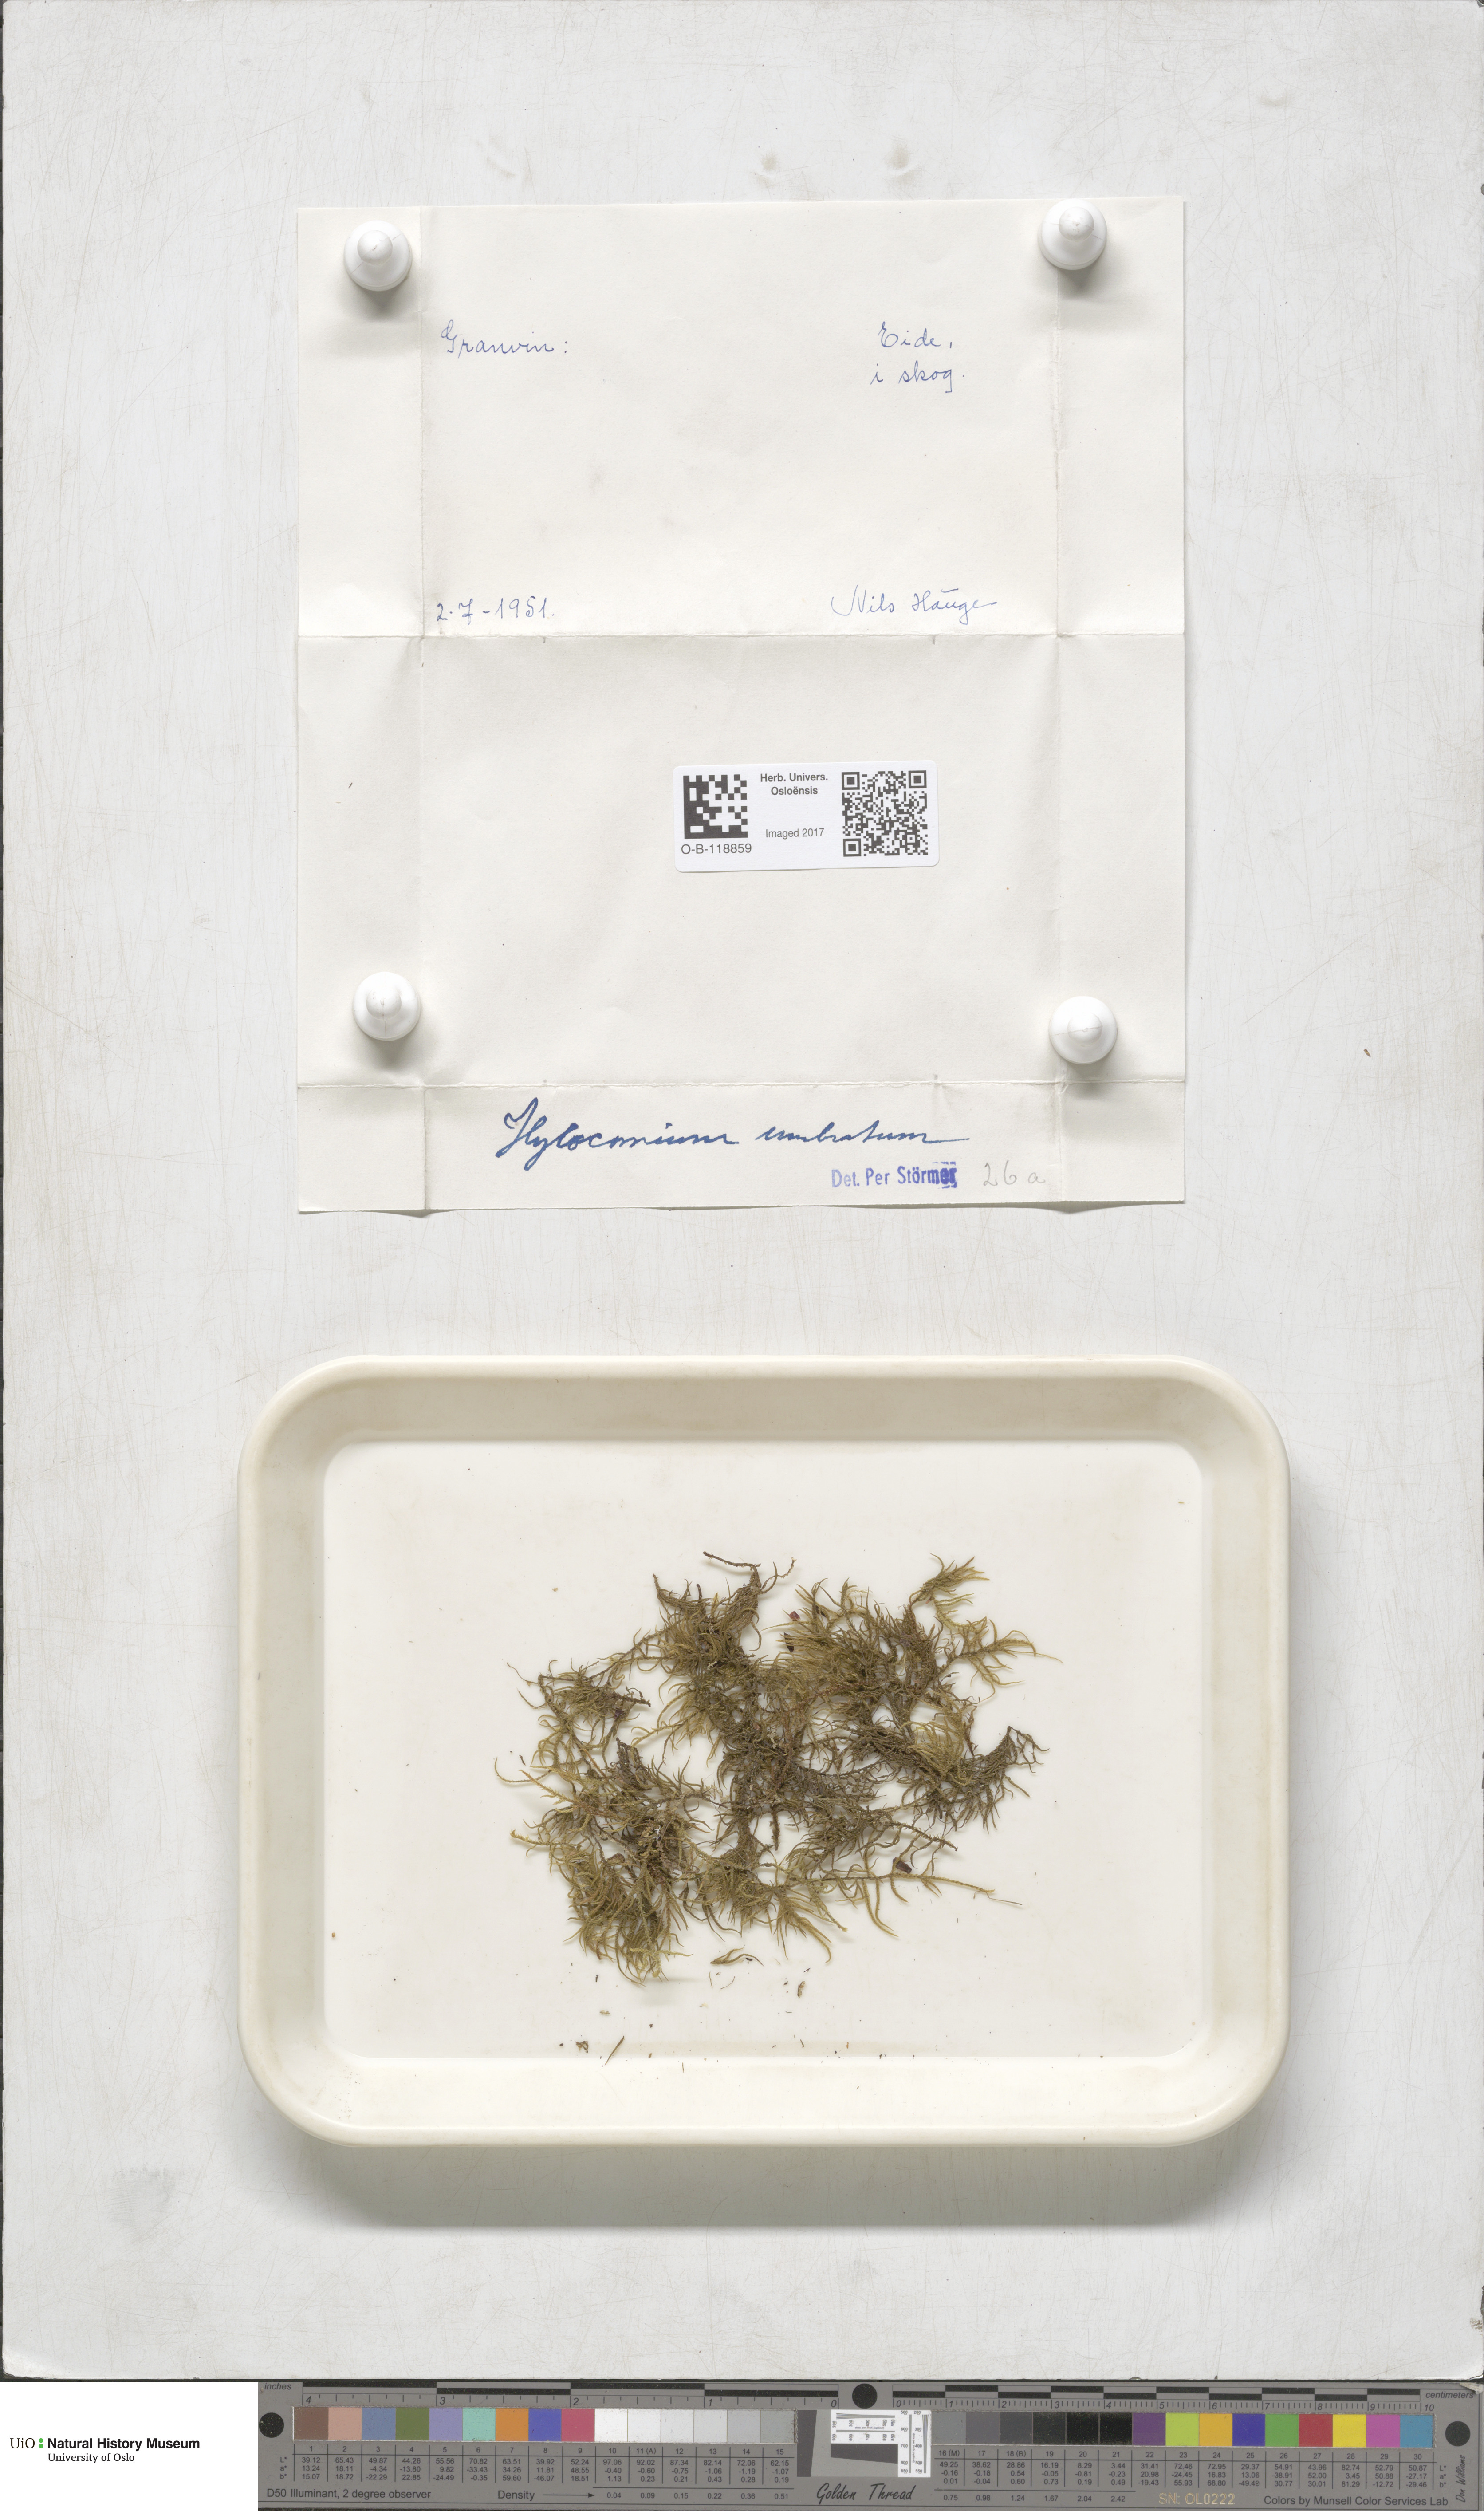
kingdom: Plantae
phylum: Bryophyta
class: Bryopsida
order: Hypnales
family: Hylocomiaceae
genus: Hylocomiastrum
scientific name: Hylocomiastrum umbratum
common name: Shaded woods moss
